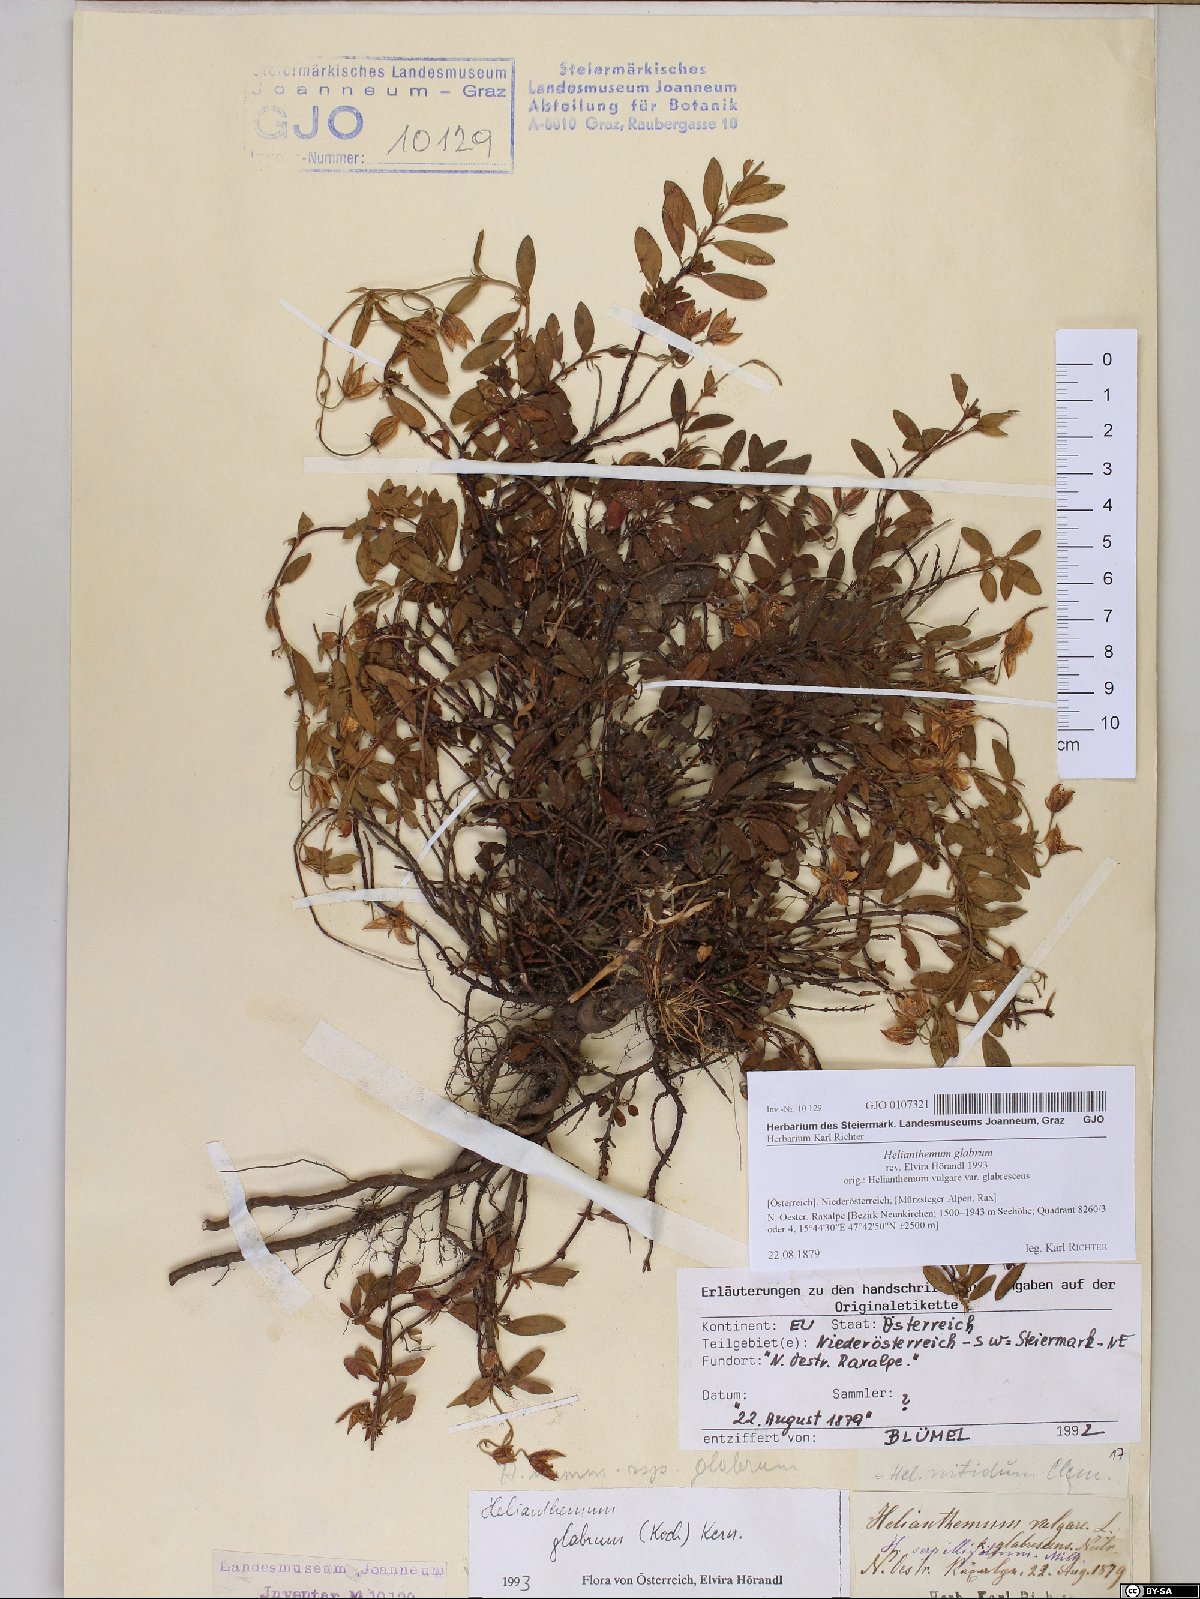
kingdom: Plantae
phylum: Tracheophyta
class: Magnoliopsida
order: Malvales
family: Cistaceae
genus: Helianthemum
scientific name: Helianthemum nummularium
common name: Common rock-rose
